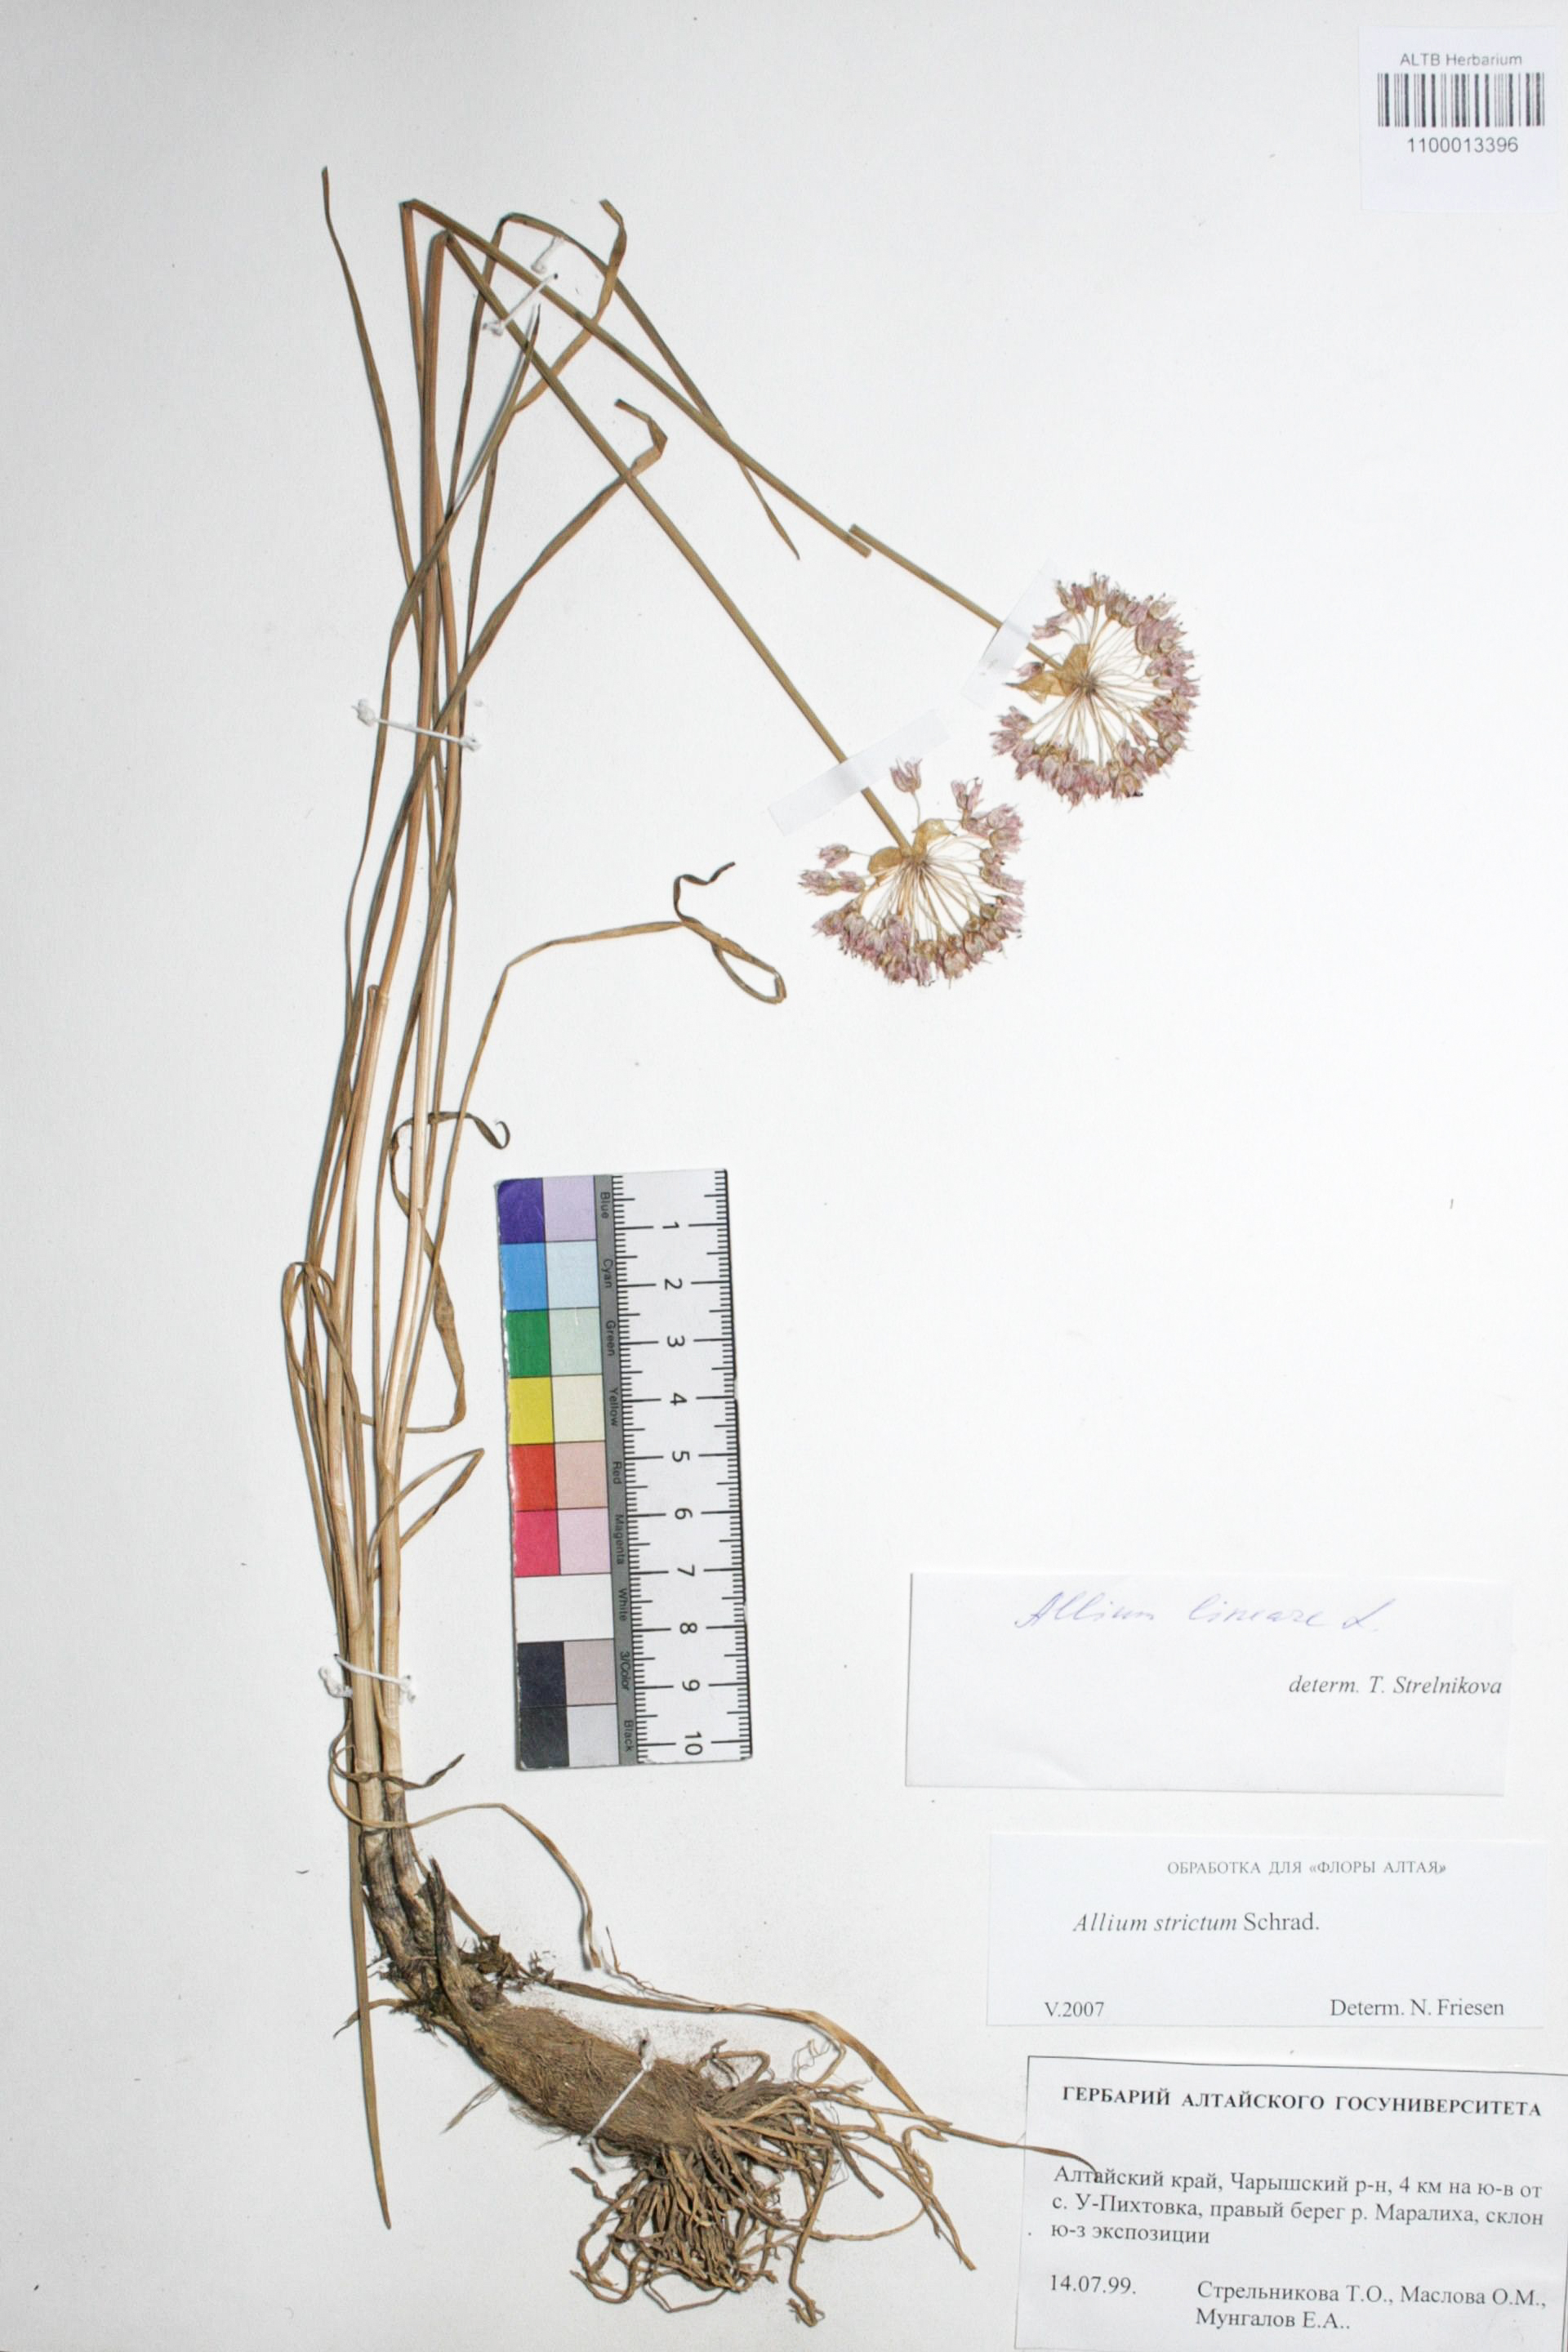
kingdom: Plantae
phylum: Tracheophyta
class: Liliopsida
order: Asparagales
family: Amaryllidaceae
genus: Allium
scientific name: Allium strictum
